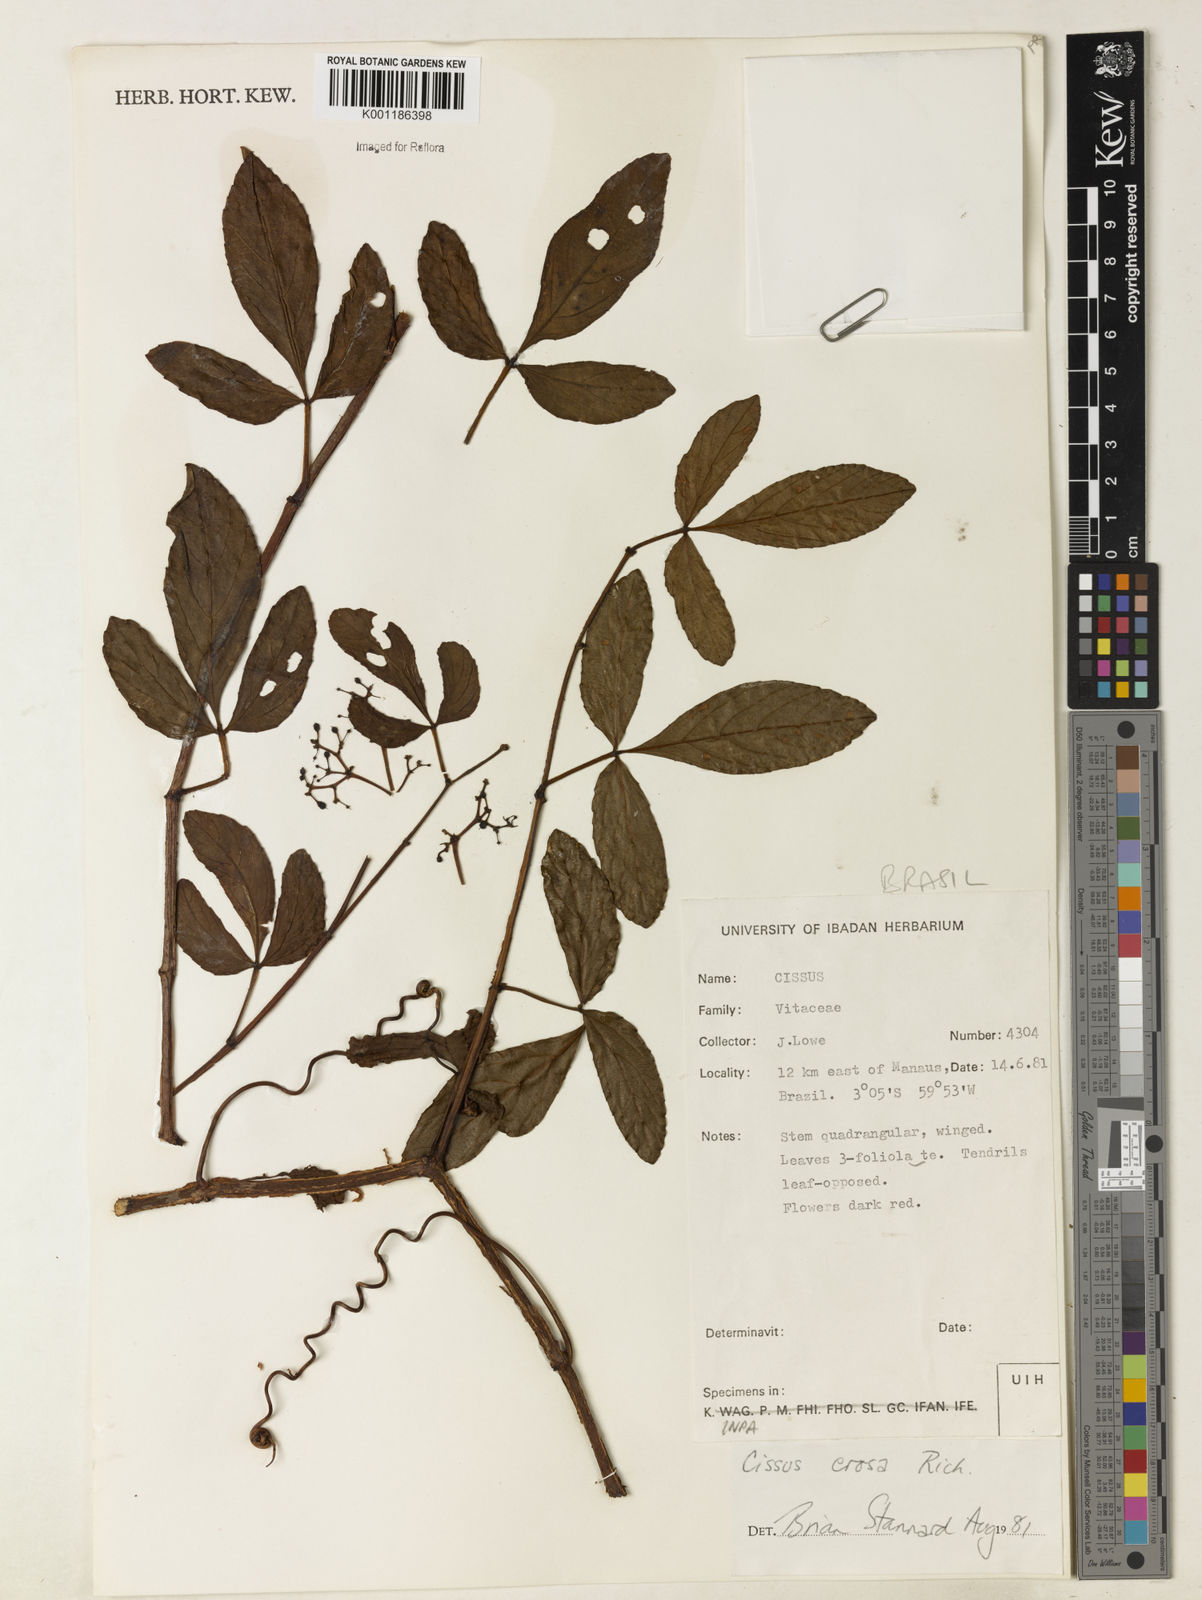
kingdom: Plantae
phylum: Tracheophyta
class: Magnoliopsida
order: Vitales
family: Vitaceae
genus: Cissus
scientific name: Cissus erosa
